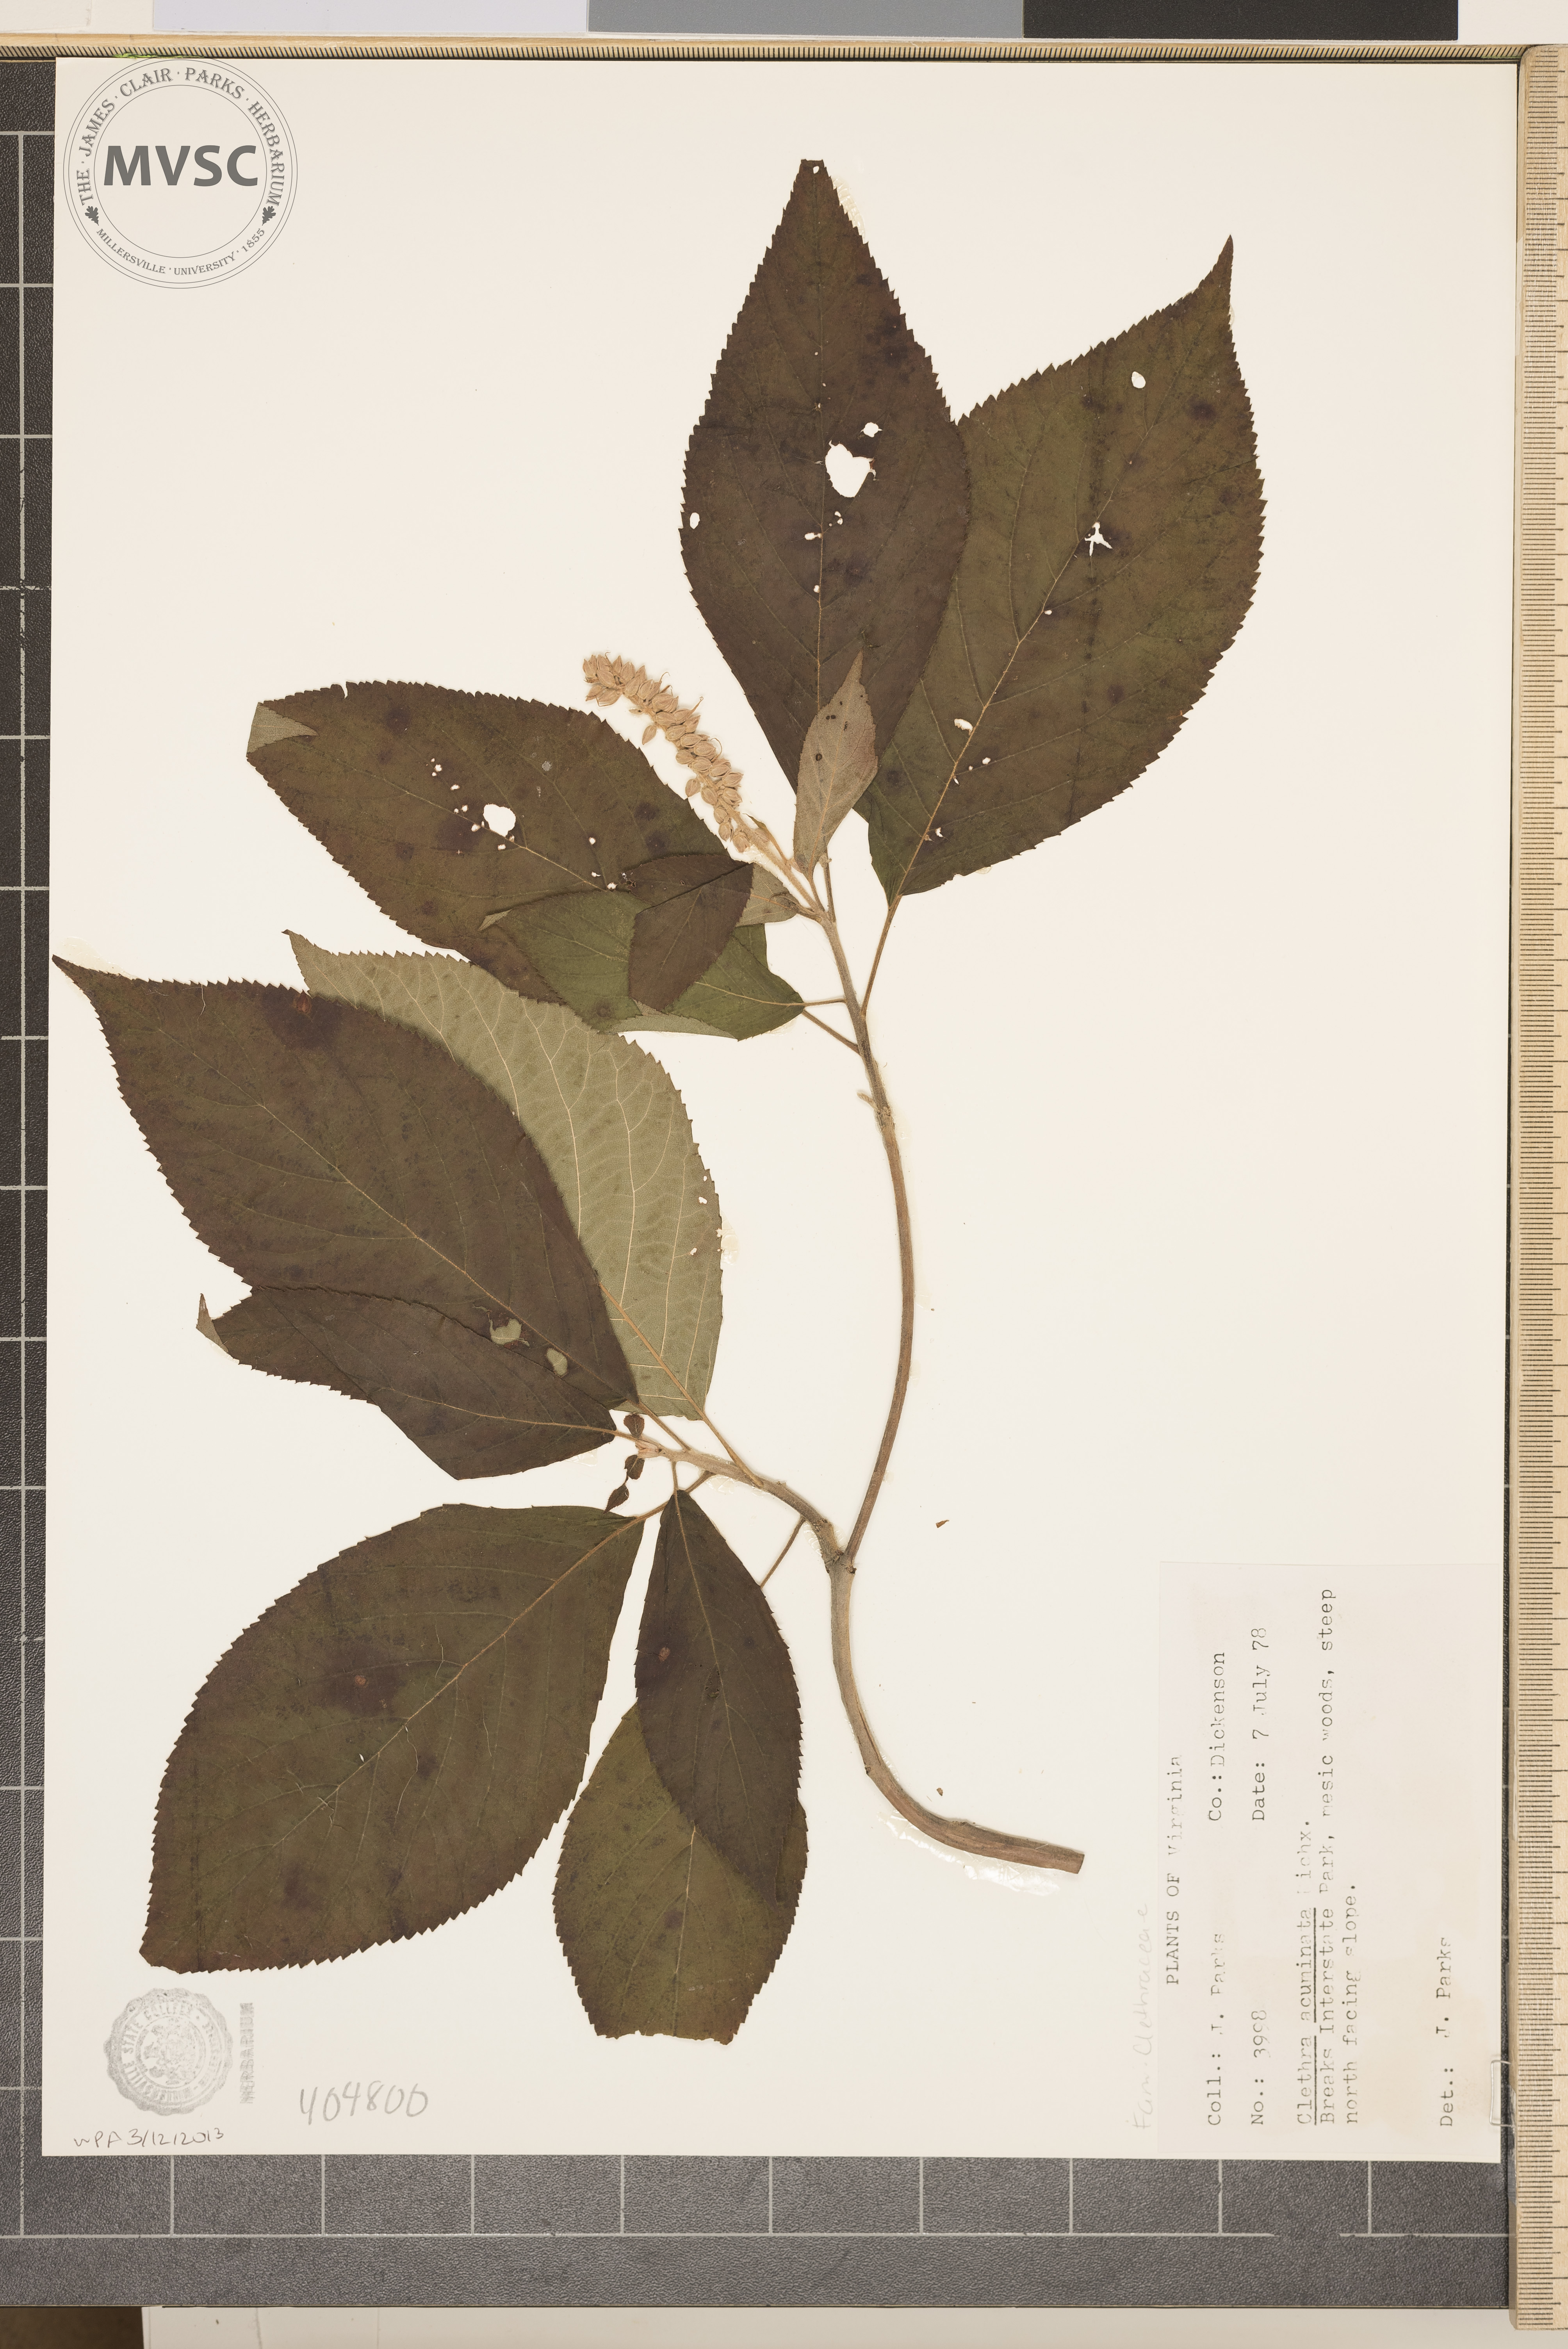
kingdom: Plantae
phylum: Tracheophyta
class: Magnoliopsida
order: Ericales
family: Clethraceae
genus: Clethra
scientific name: Clethra acuminata
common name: Mountain sweet pepperbush
